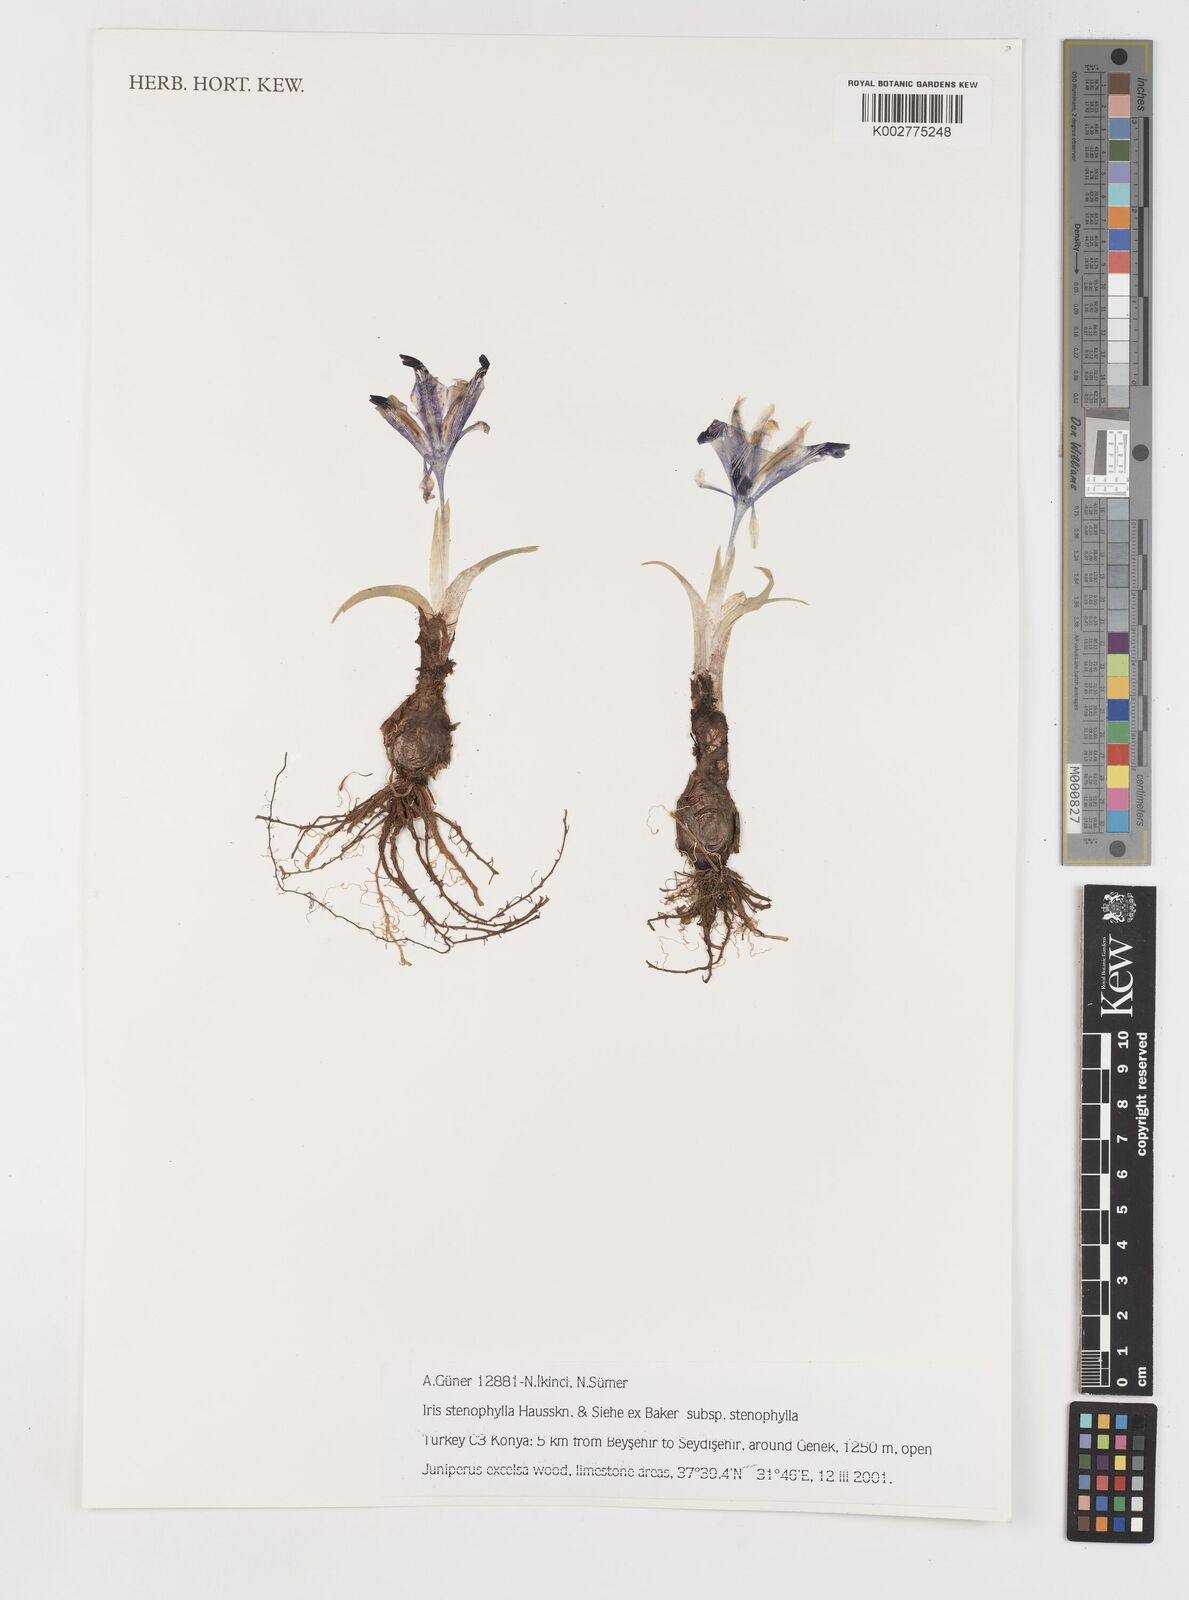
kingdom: Plantae
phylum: Tracheophyta
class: Liliopsida
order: Asparagales
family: Iridaceae
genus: Iris
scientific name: Iris stenophylla
